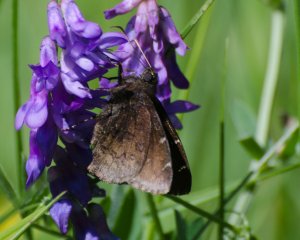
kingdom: Animalia
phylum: Arthropoda
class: Insecta
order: Lepidoptera
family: Hesperiidae
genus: Autochton
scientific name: Autochton
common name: Northern Cloudywing
